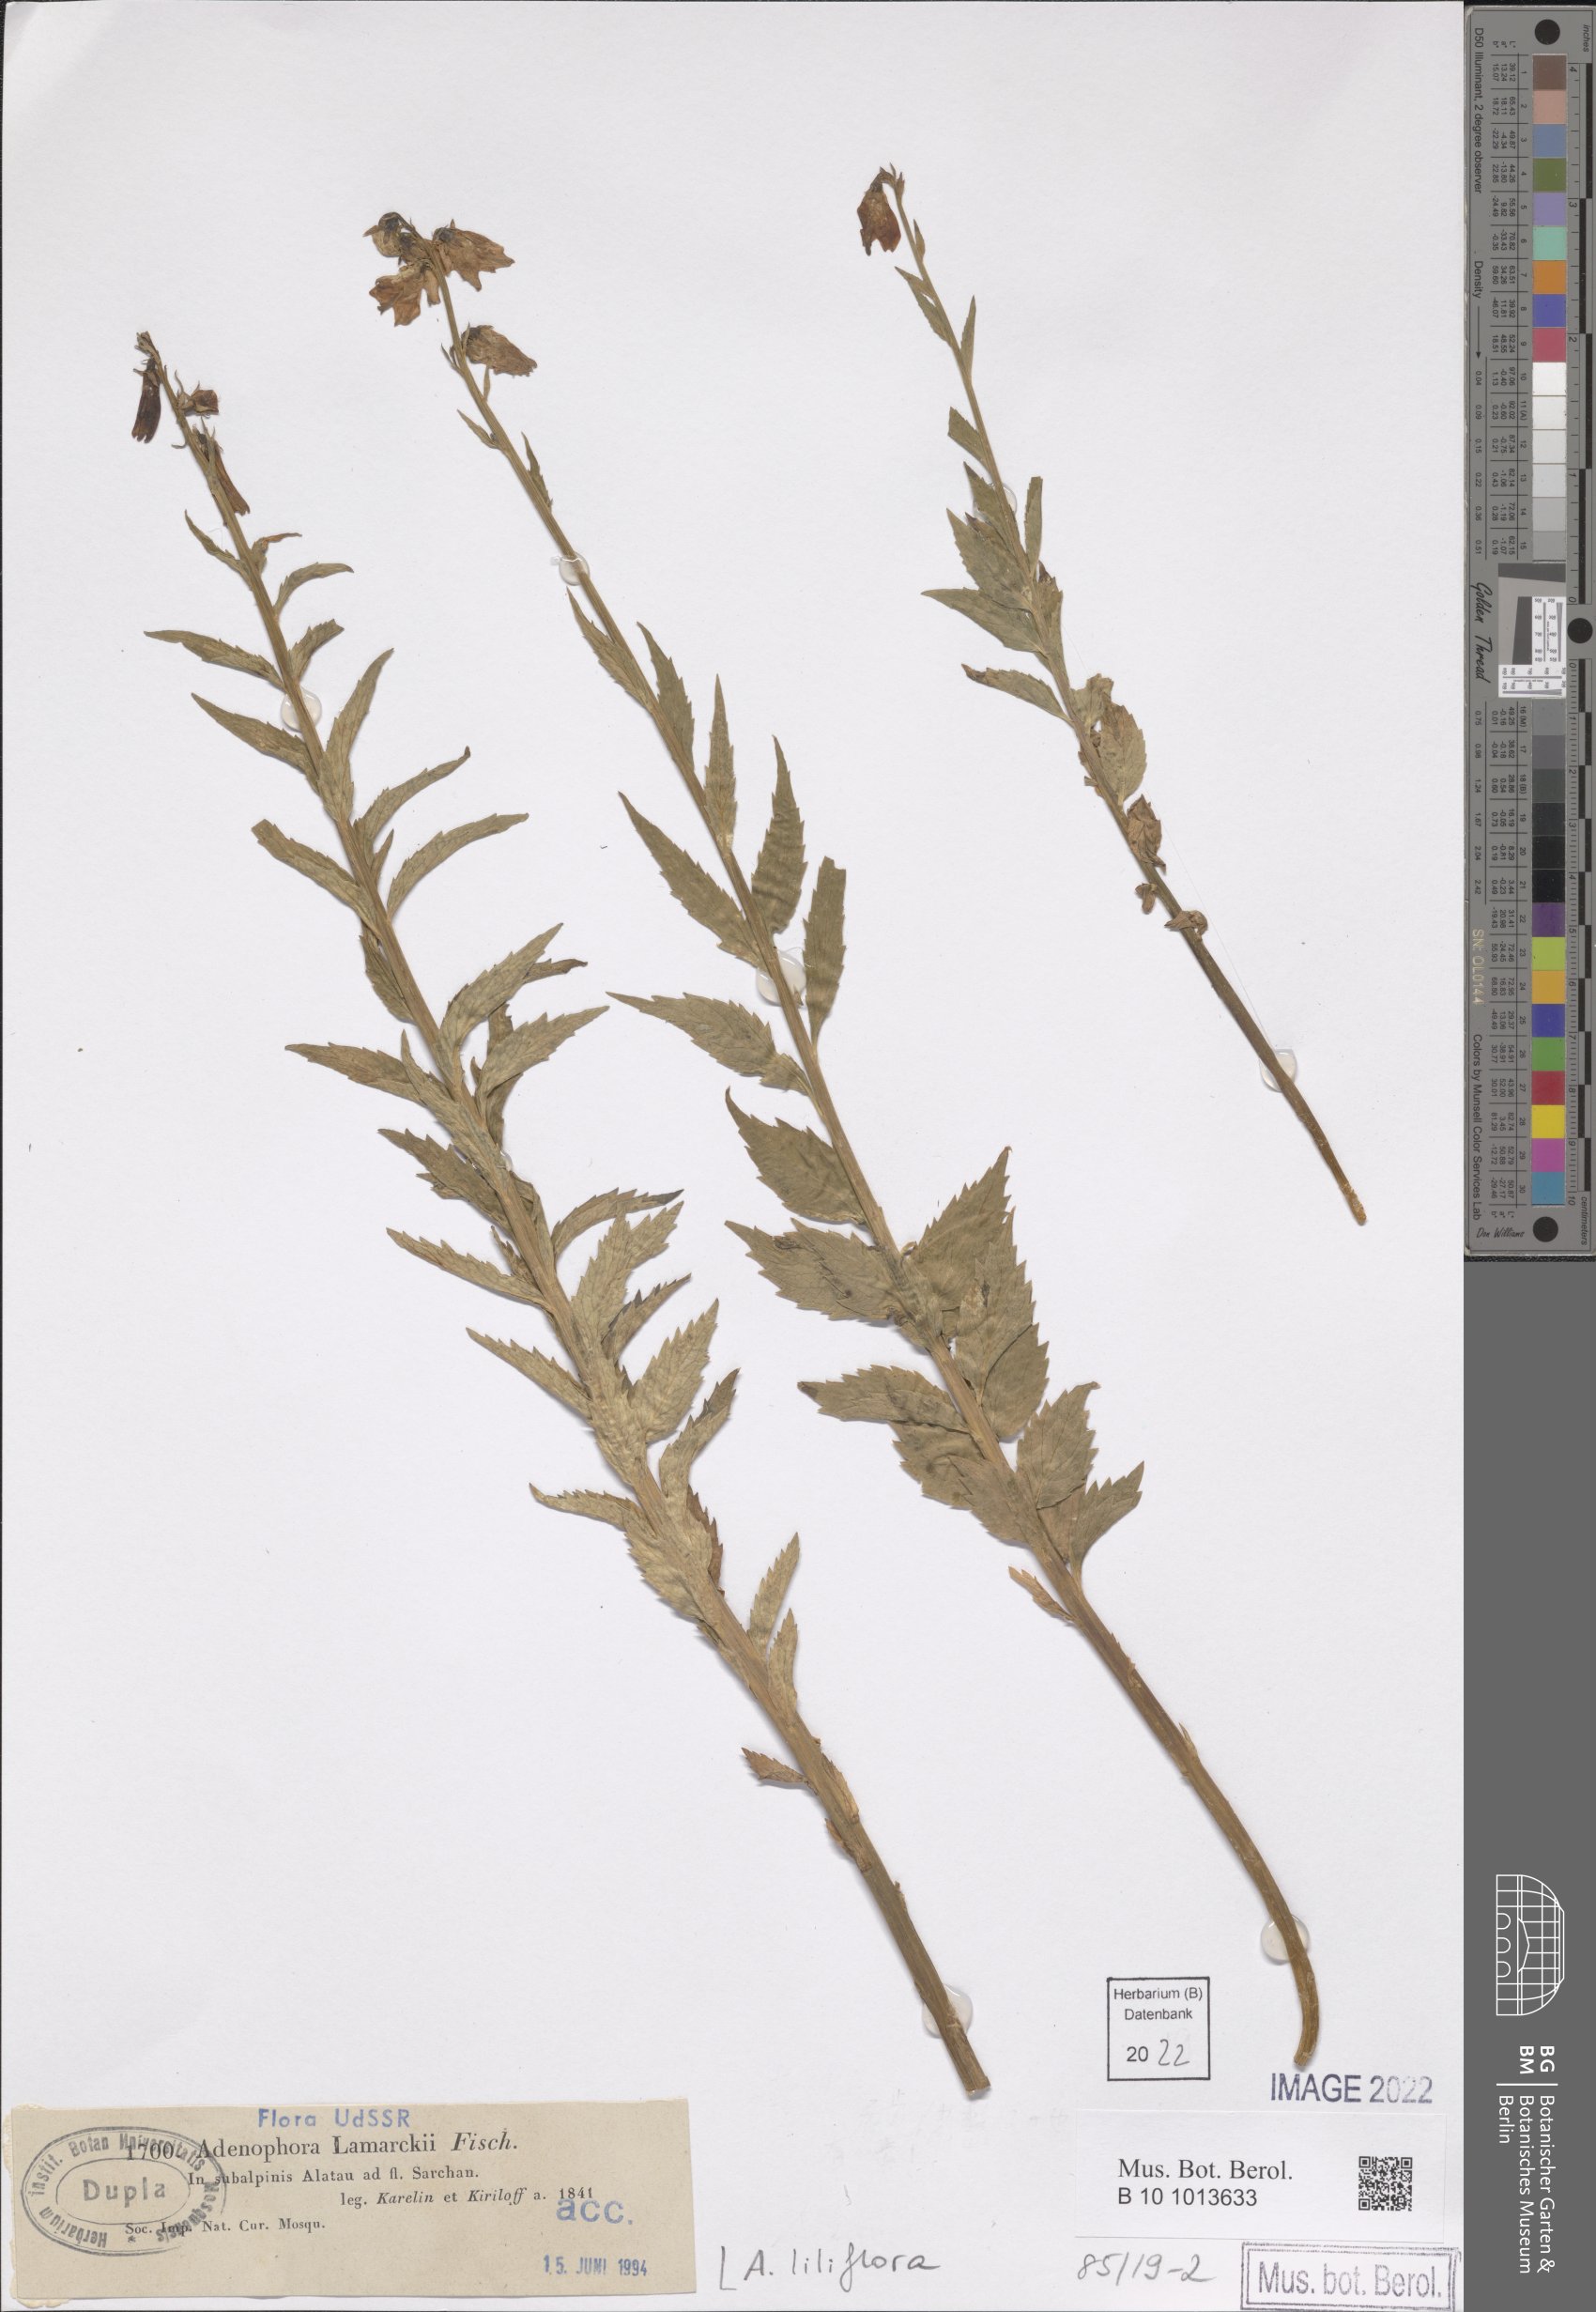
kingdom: Plantae
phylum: Tracheophyta
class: Magnoliopsida
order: Asterales
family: Campanulaceae
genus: Adenophora
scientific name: Adenophora liliflora
